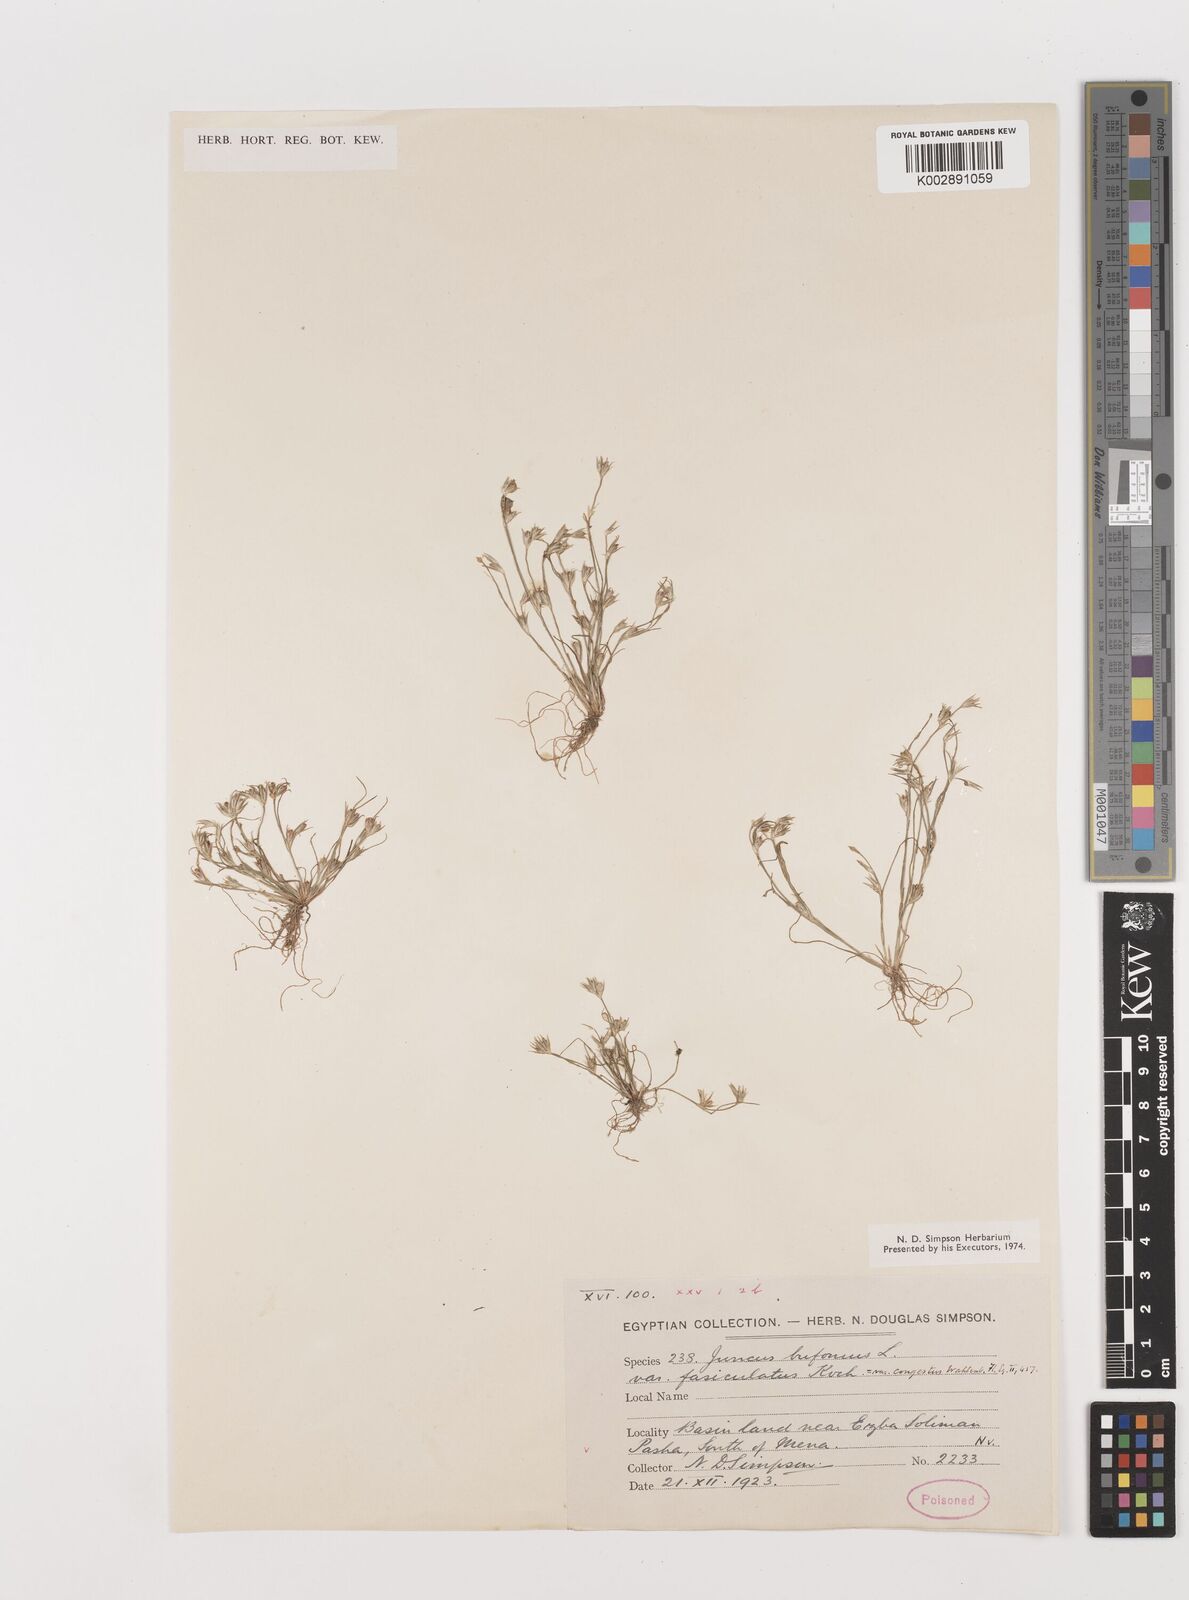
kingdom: Plantae
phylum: Tracheophyta
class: Liliopsida
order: Poales
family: Juncaceae
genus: Juncus
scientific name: Juncus bufonius
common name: Toad rush
